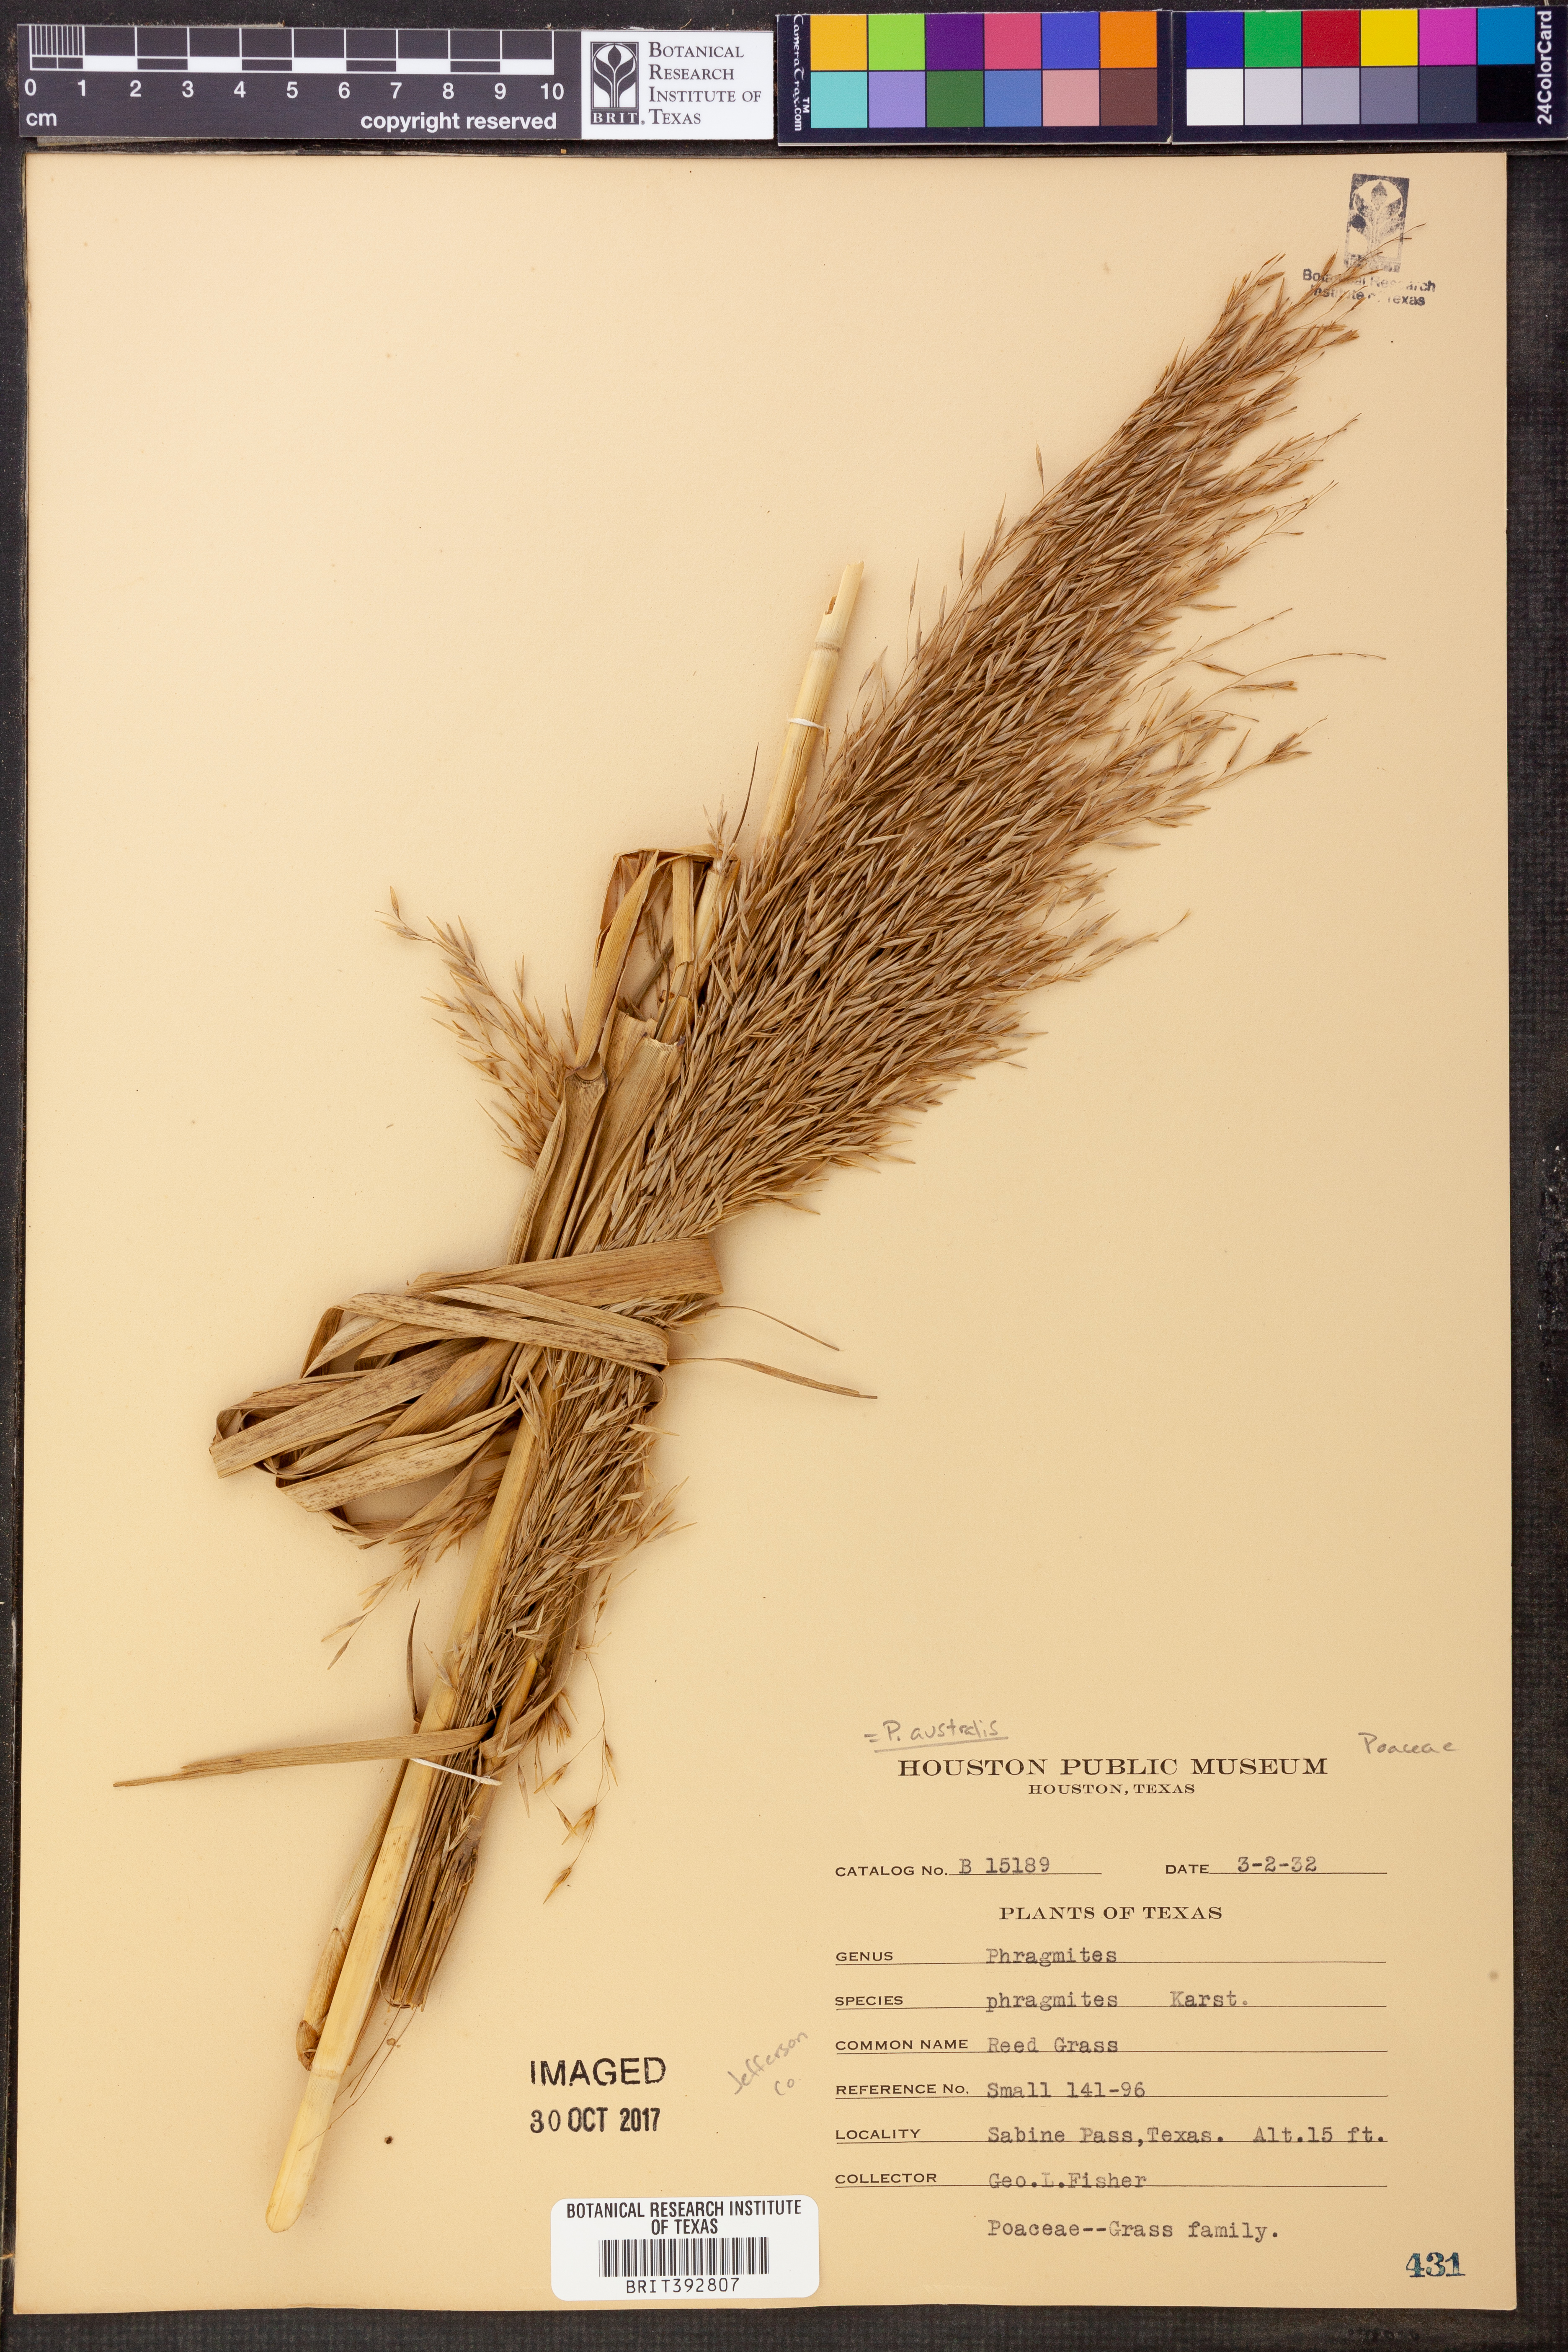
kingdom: Plantae
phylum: Tracheophyta
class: Liliopsida
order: Poales
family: Poaceae
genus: Phragmites
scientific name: Phragmites australis
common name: Common reed
